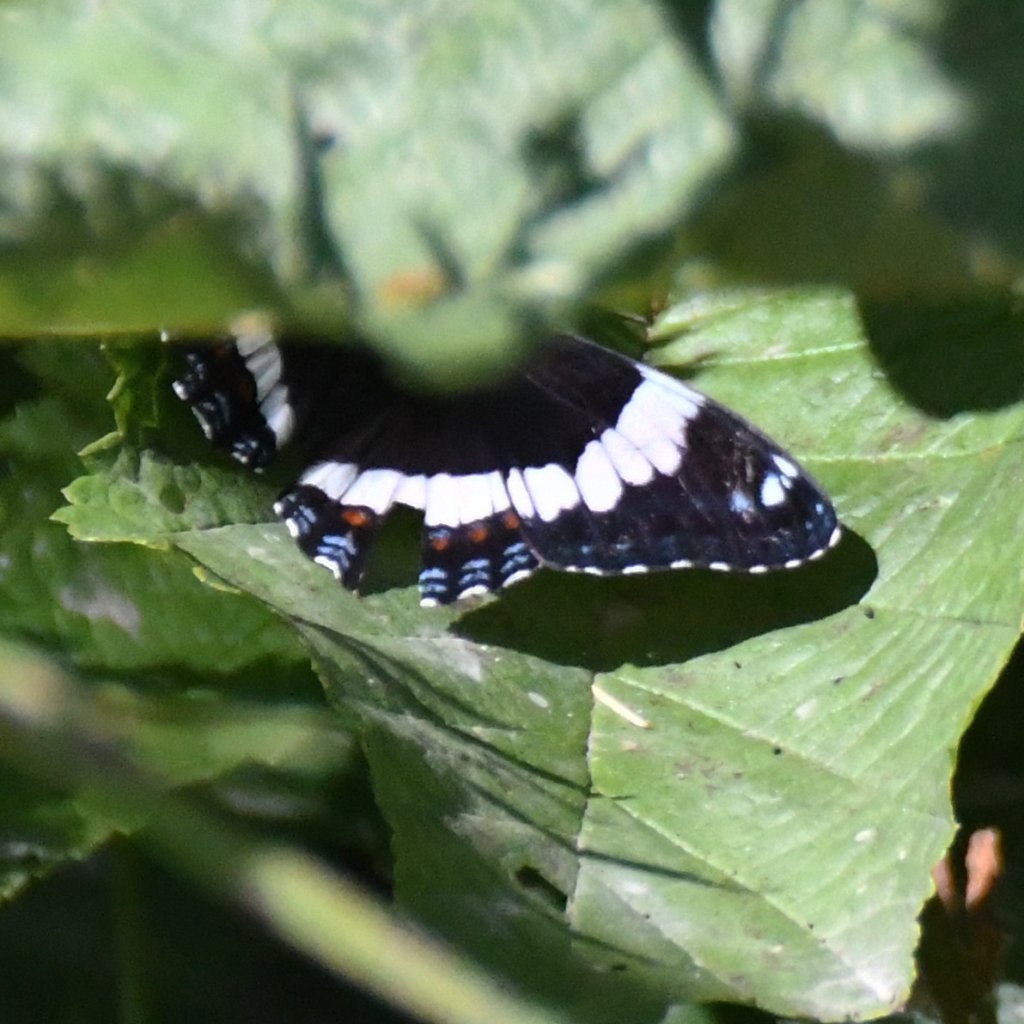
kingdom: Animalia
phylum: Arthropoda
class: Insecta
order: Lepidoptera
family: Nymphalidae
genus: Limenitis
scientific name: Limenitis arthemis
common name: Red-spotted Admiral
